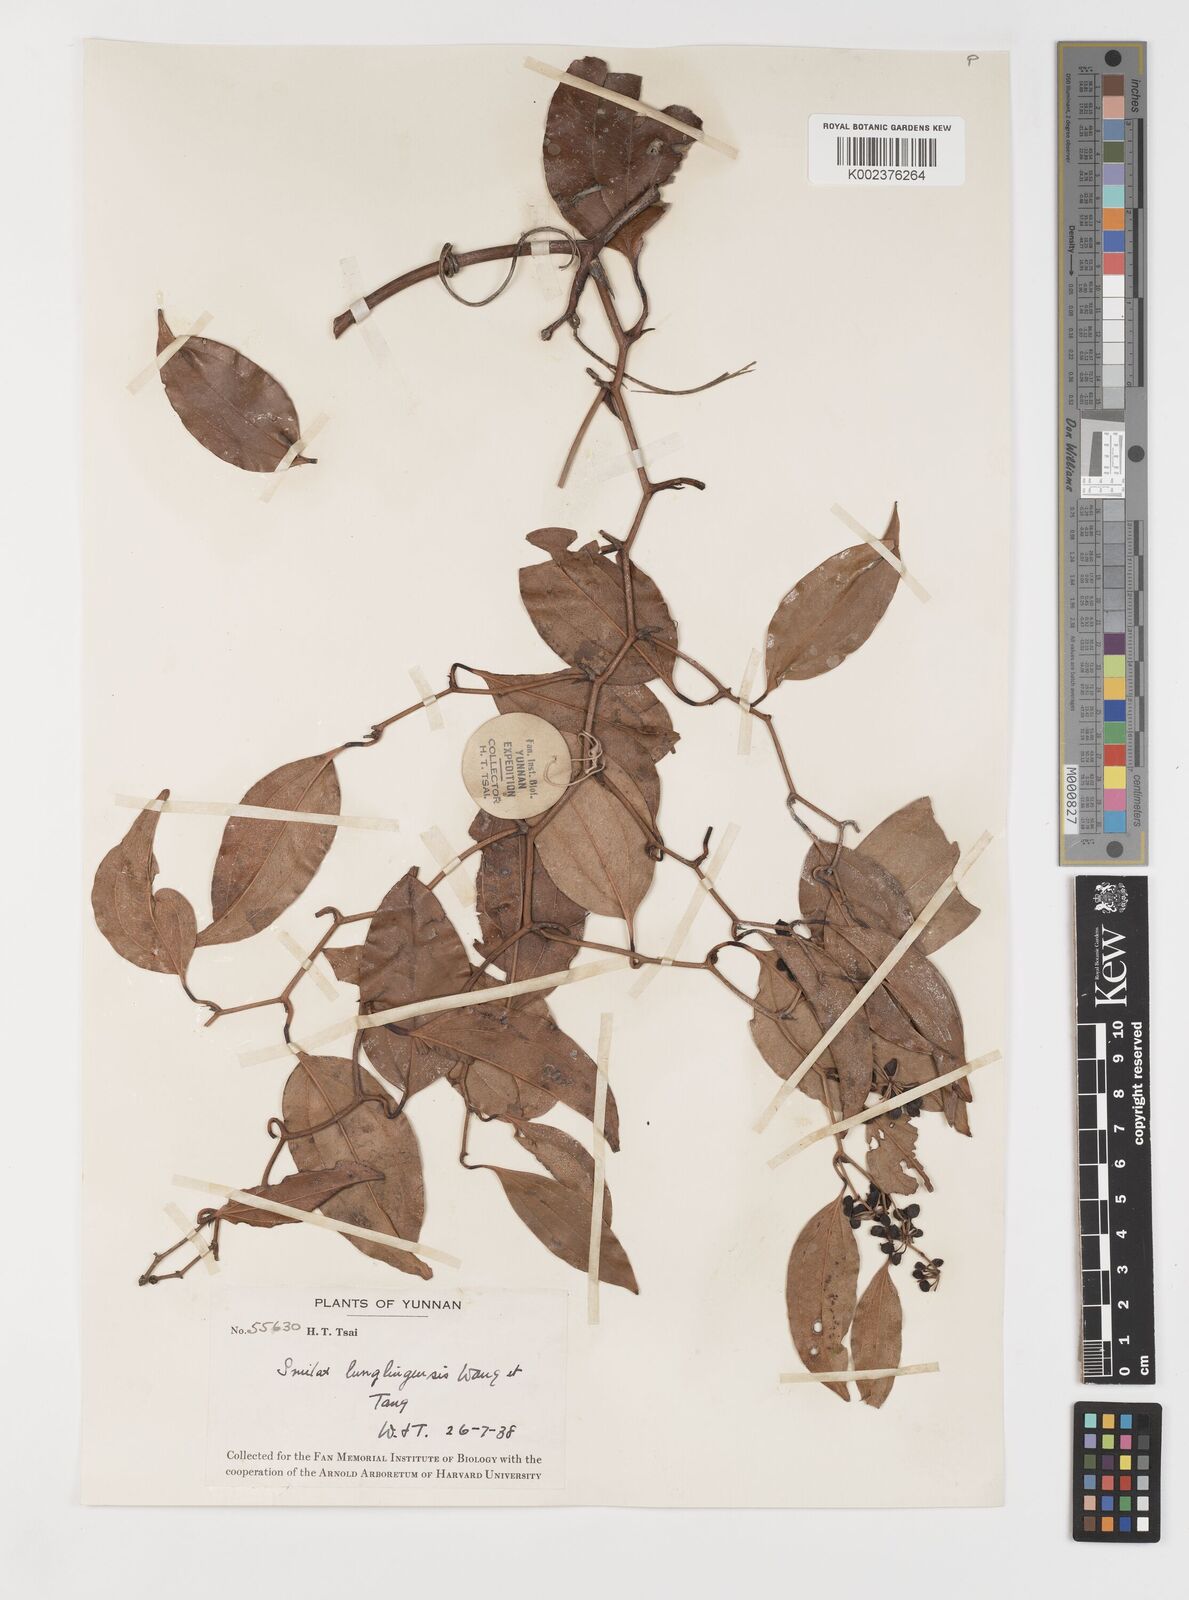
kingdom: Plantae
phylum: Tracheophyta
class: Liliopsida
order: Liliales
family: Smilacaceae
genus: Smilax
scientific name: Smilax lunglingensis
